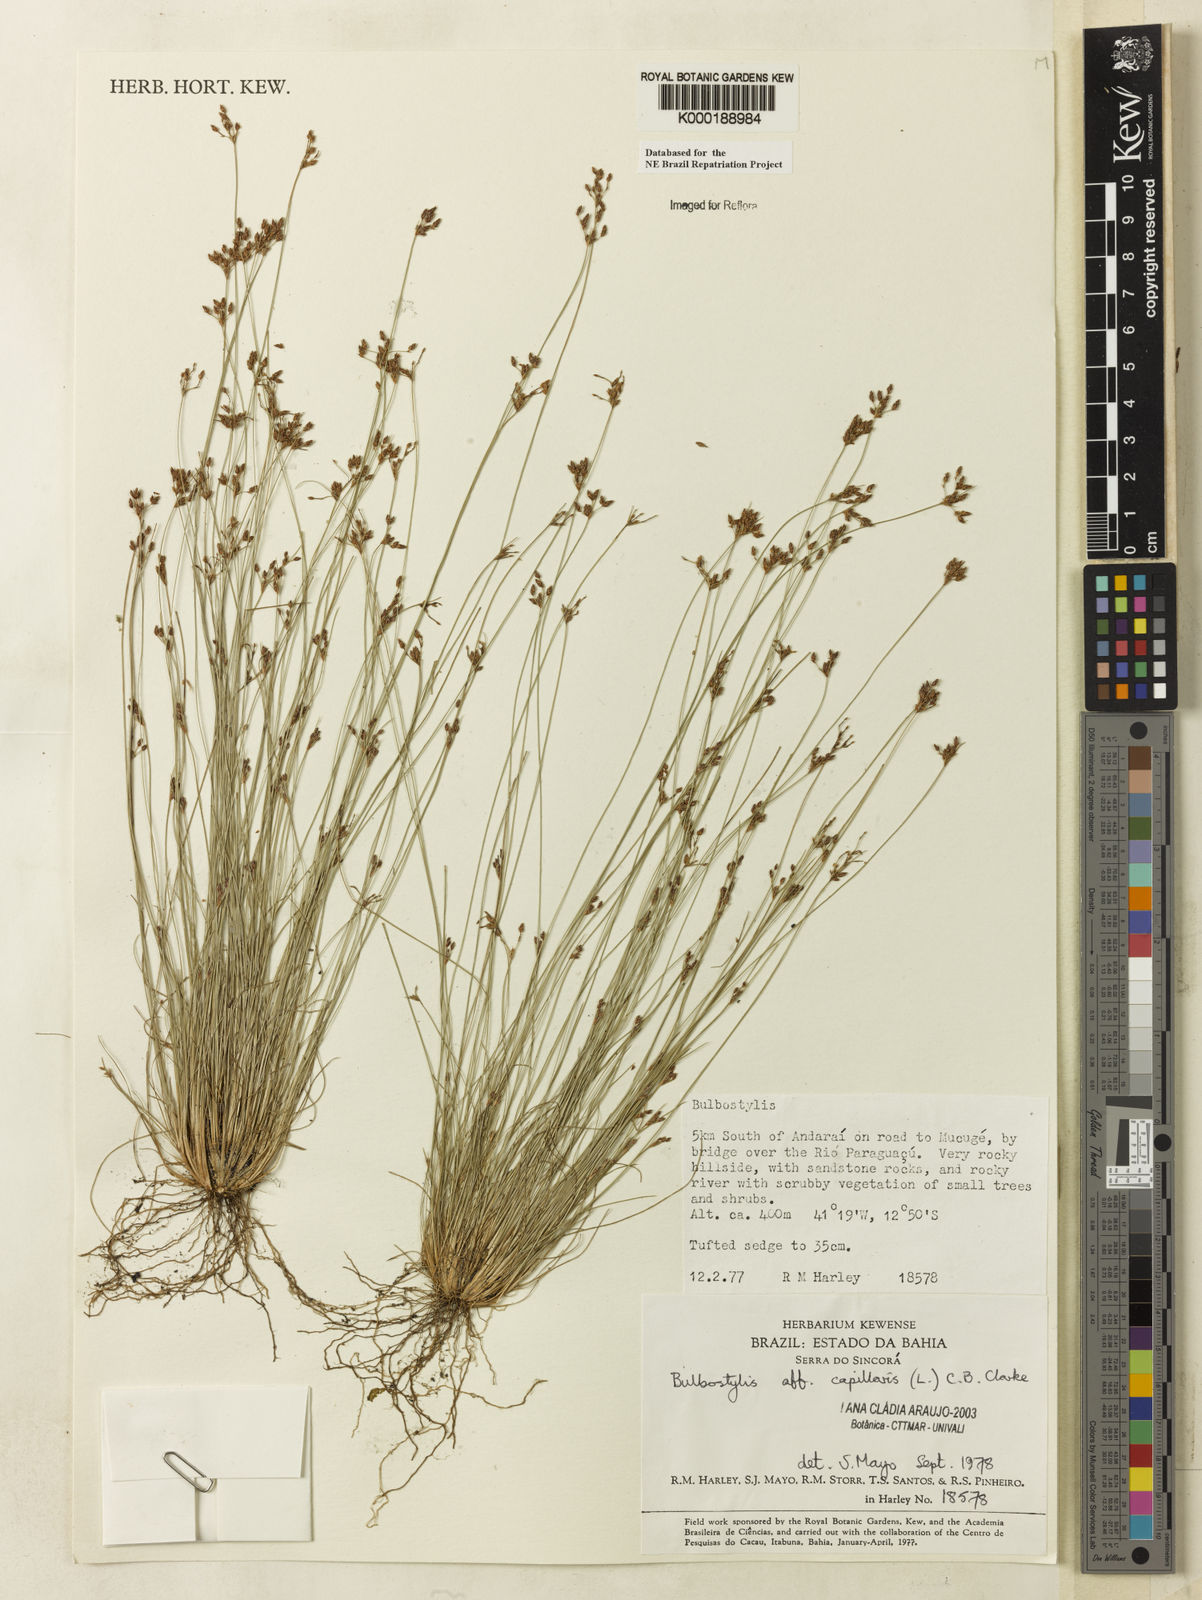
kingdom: Plantae
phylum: Tracheophyta
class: Liliopsida
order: Poales
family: Cyperaceae
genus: Bulbostylis
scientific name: Bulbostylis capillaris
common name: Densetuft hairsedge
